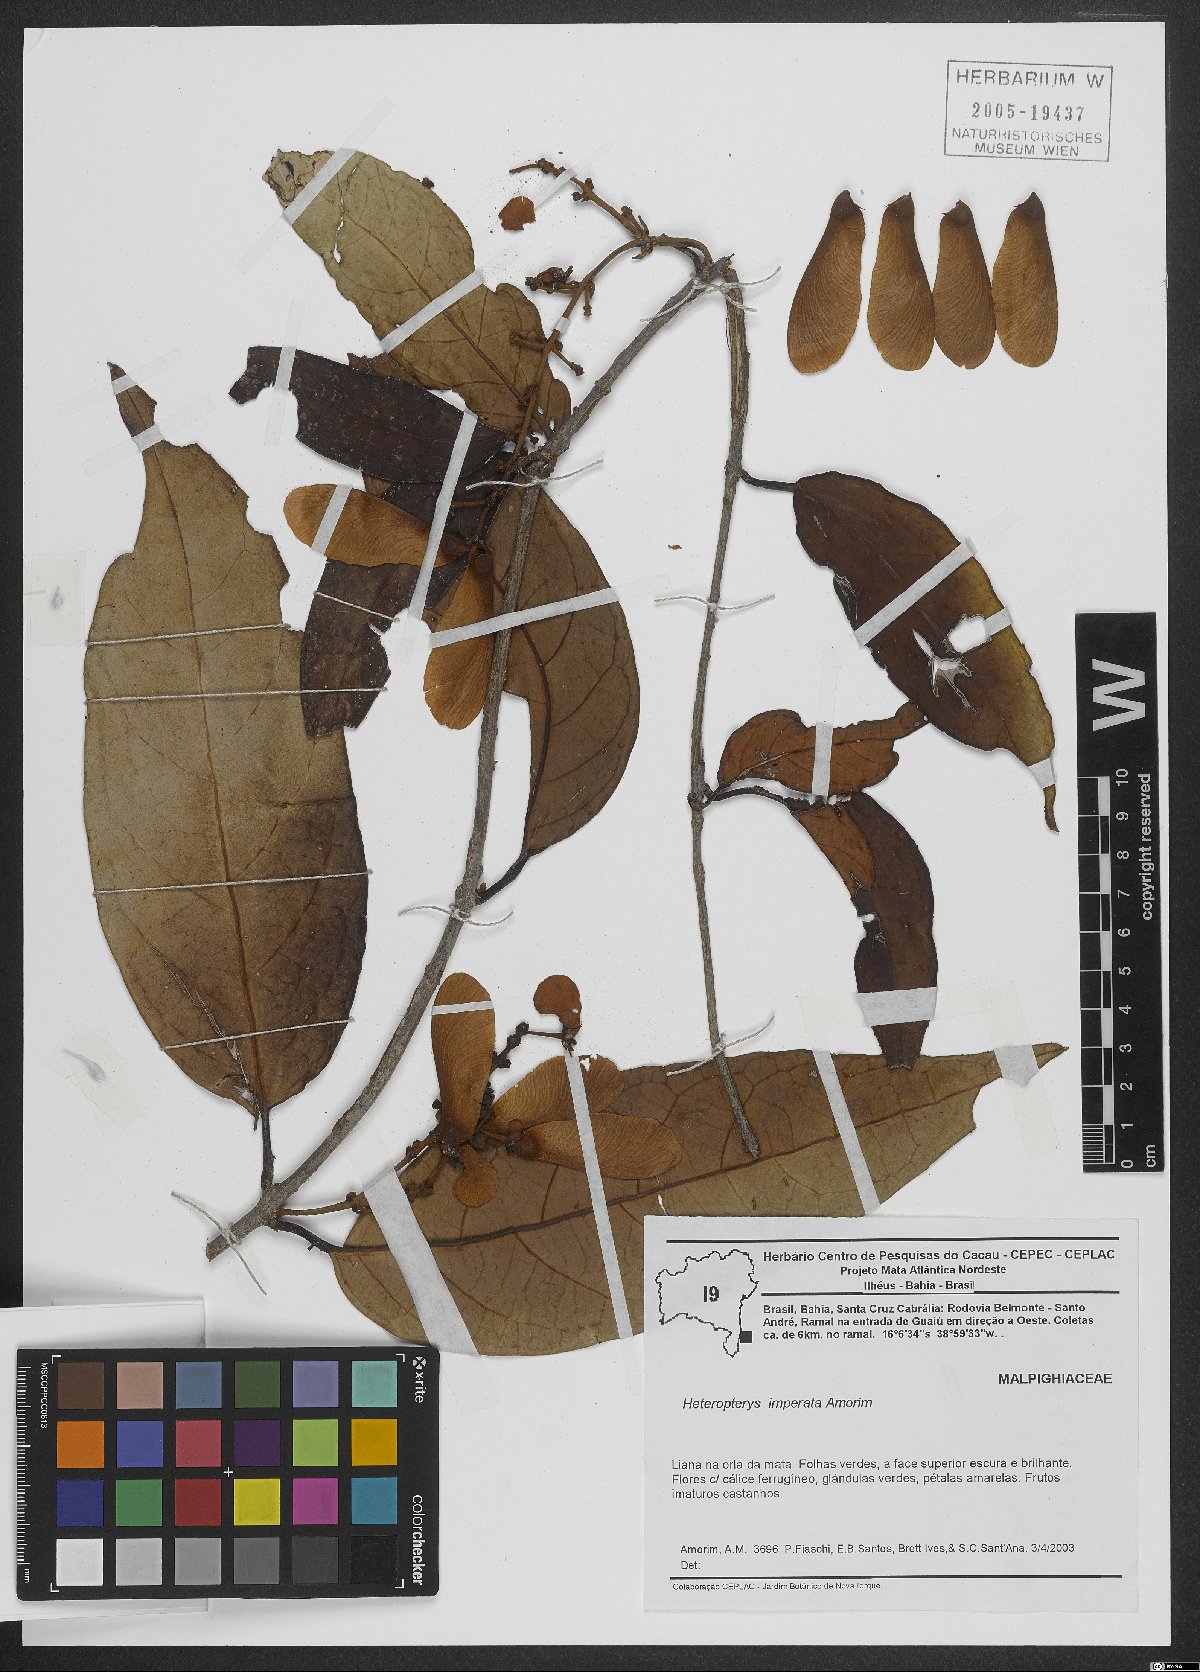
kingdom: Plantae
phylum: Tracheophyta
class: Magnoliopsida
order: Malpighiales
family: Malpighiaceae
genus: Heteropterys
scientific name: Heteropterys imperata
